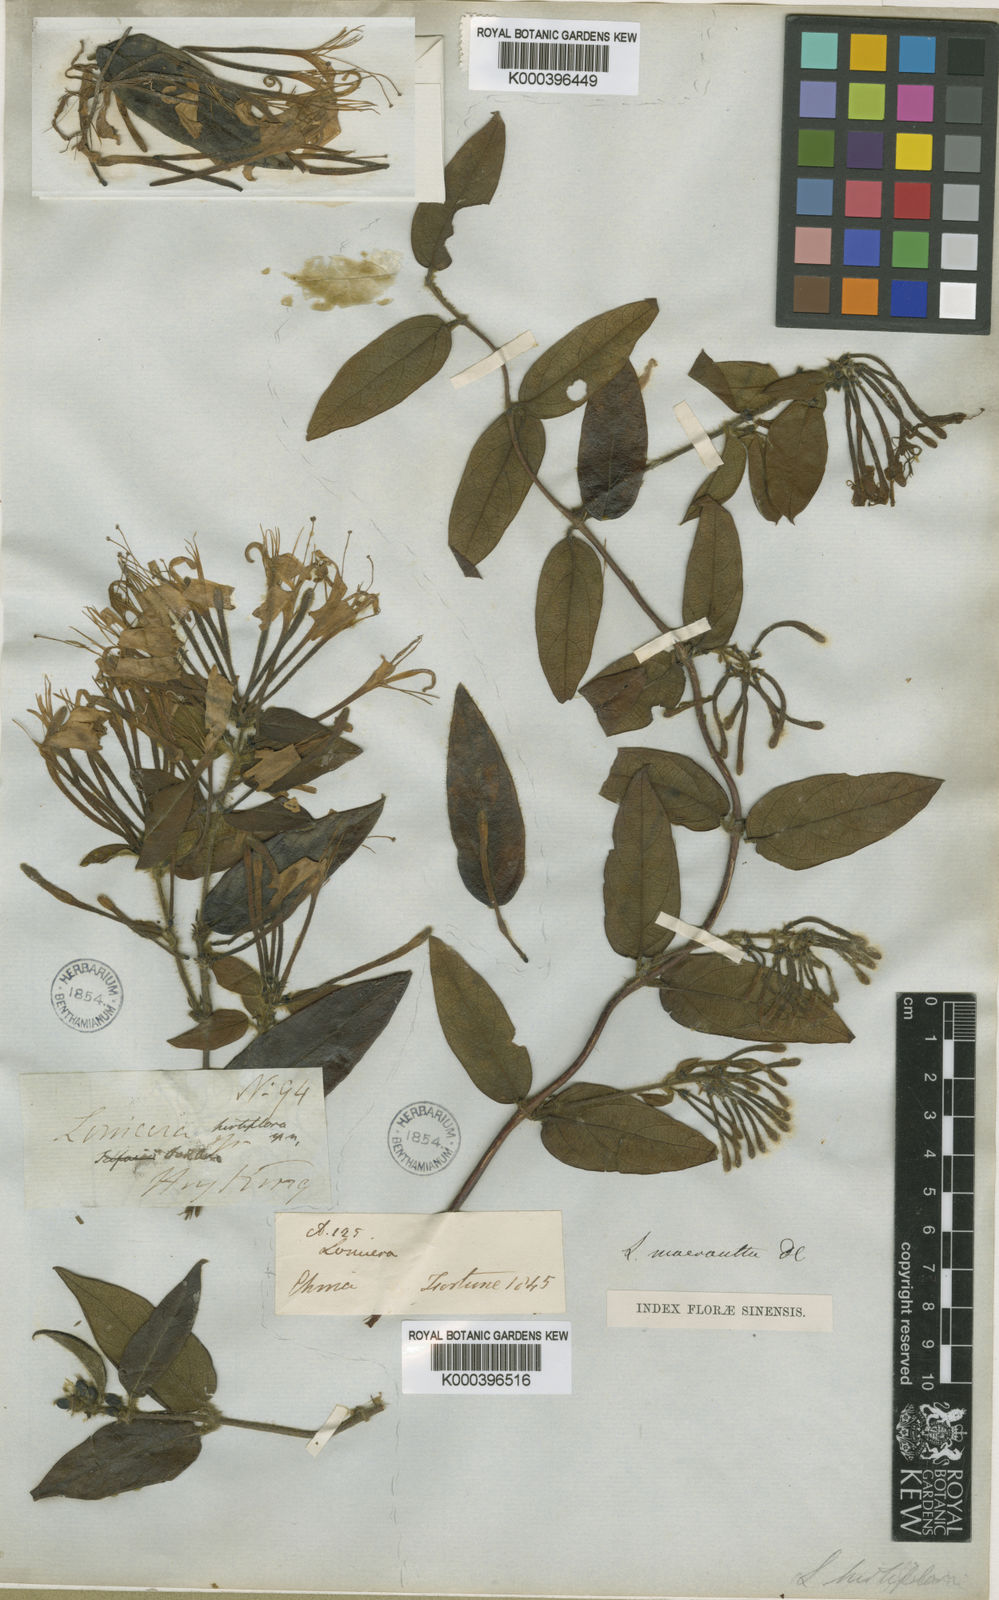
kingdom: Plantae
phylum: Tracheophyta
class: Magnoliopsida
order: Dipsacales
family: Caprifoliaceae
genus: Lonicera
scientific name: Lonicera macrantha
